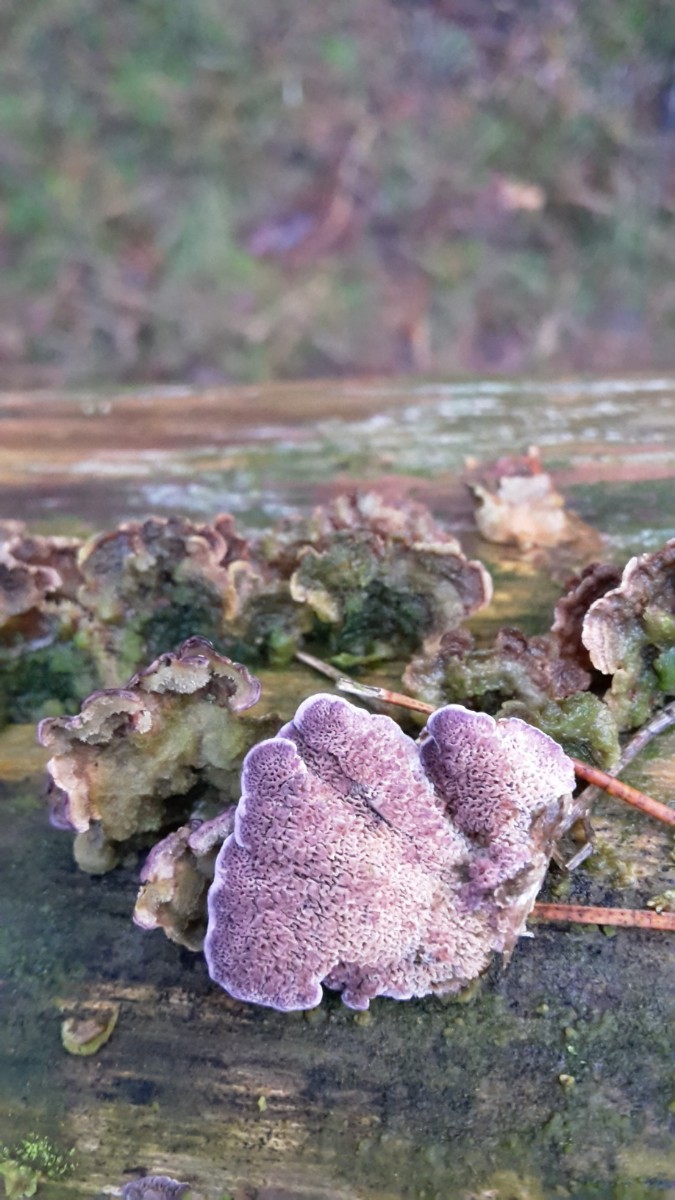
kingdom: Fungi
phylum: Basidiomycota
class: Agaricomycetes
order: Hymenochaetales
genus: Trichaptum
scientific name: Trichaptum abietinum
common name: almindelig violporesvamp
